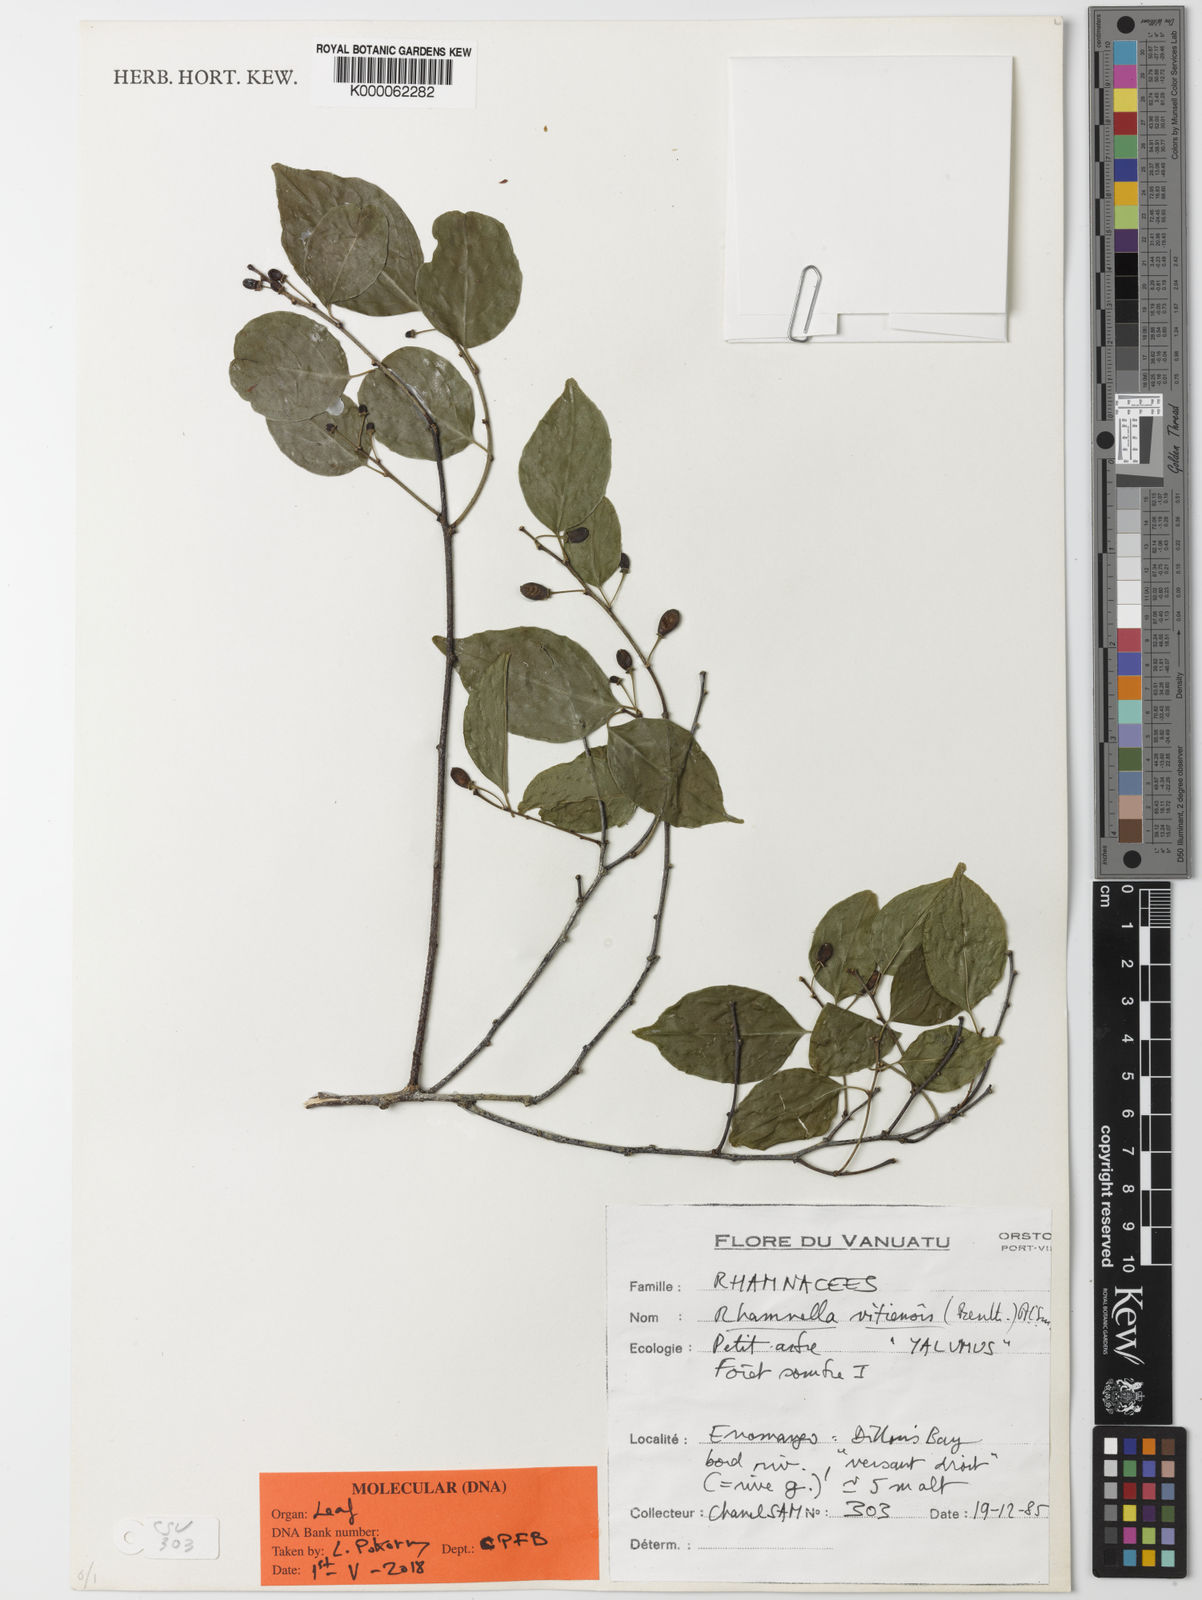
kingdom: Plantae
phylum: Tracheophyta
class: Magnoliopsida
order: Rosales
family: Rhamnaceae
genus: Dallachya
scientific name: Dallachya vitiensis
